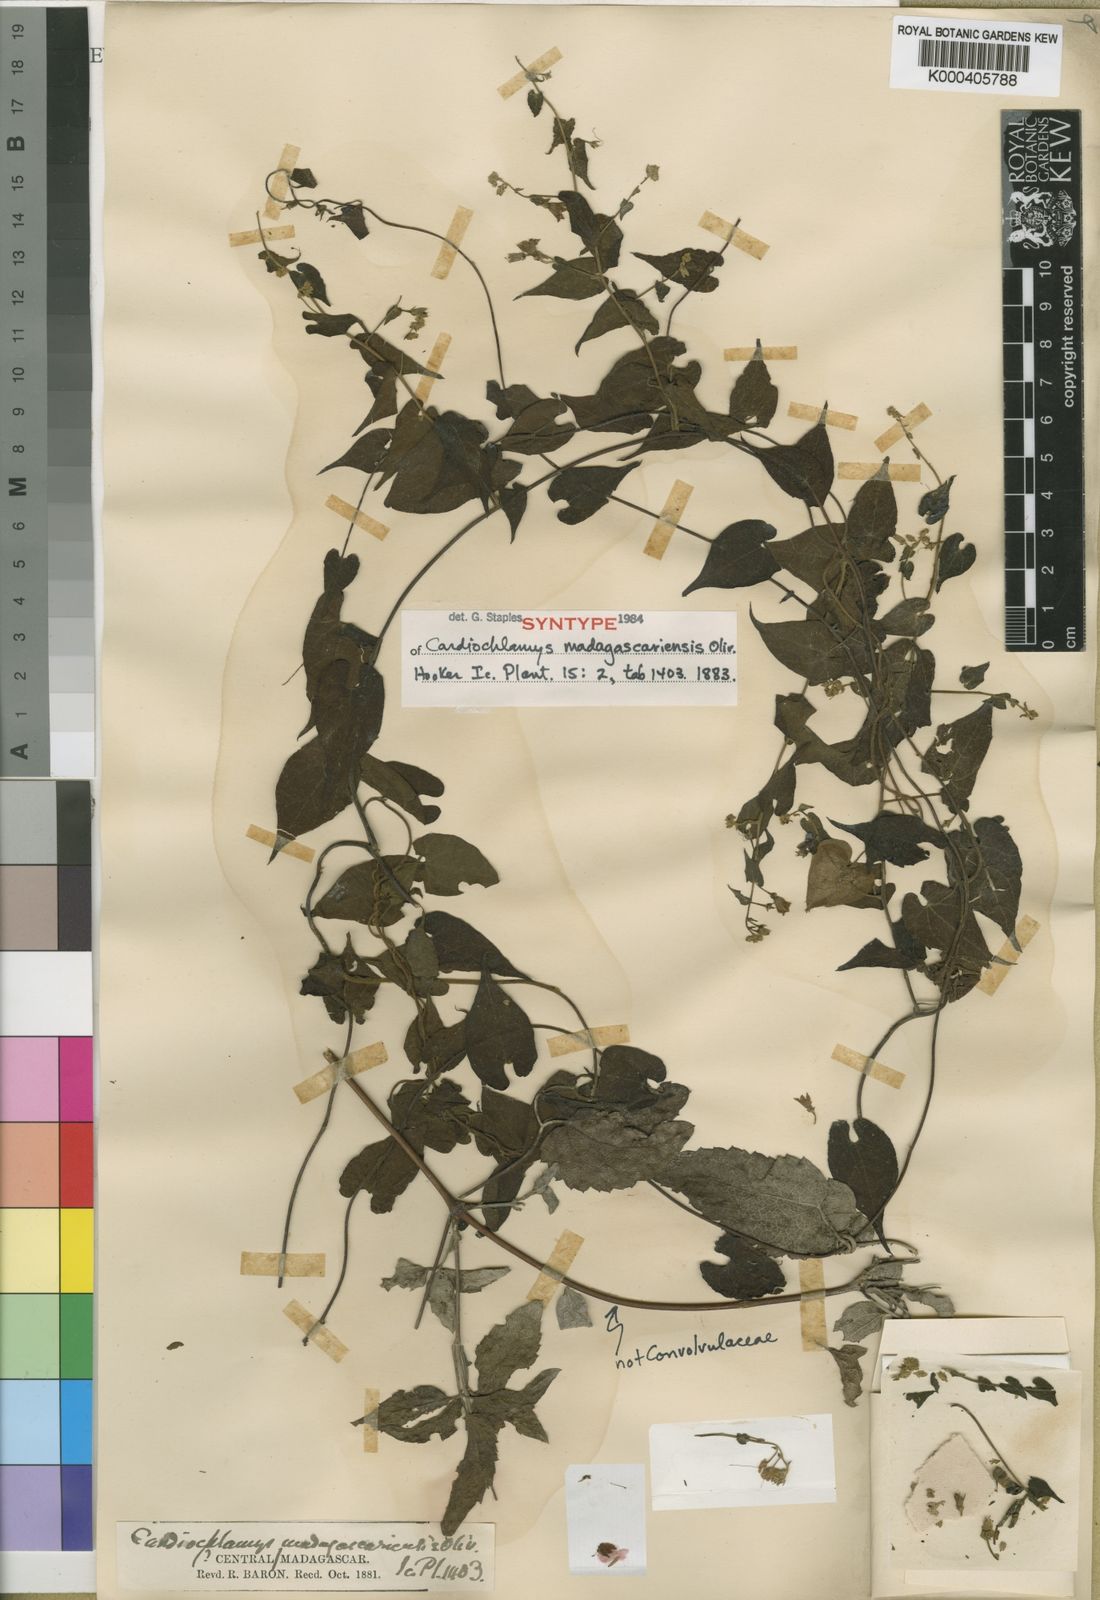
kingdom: Plantae
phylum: Tracheophyta
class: Magnoliopsida
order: Solanales
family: Convolvulaceae
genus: Cardiochlamys
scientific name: Cardiochlamys madagascariensis
